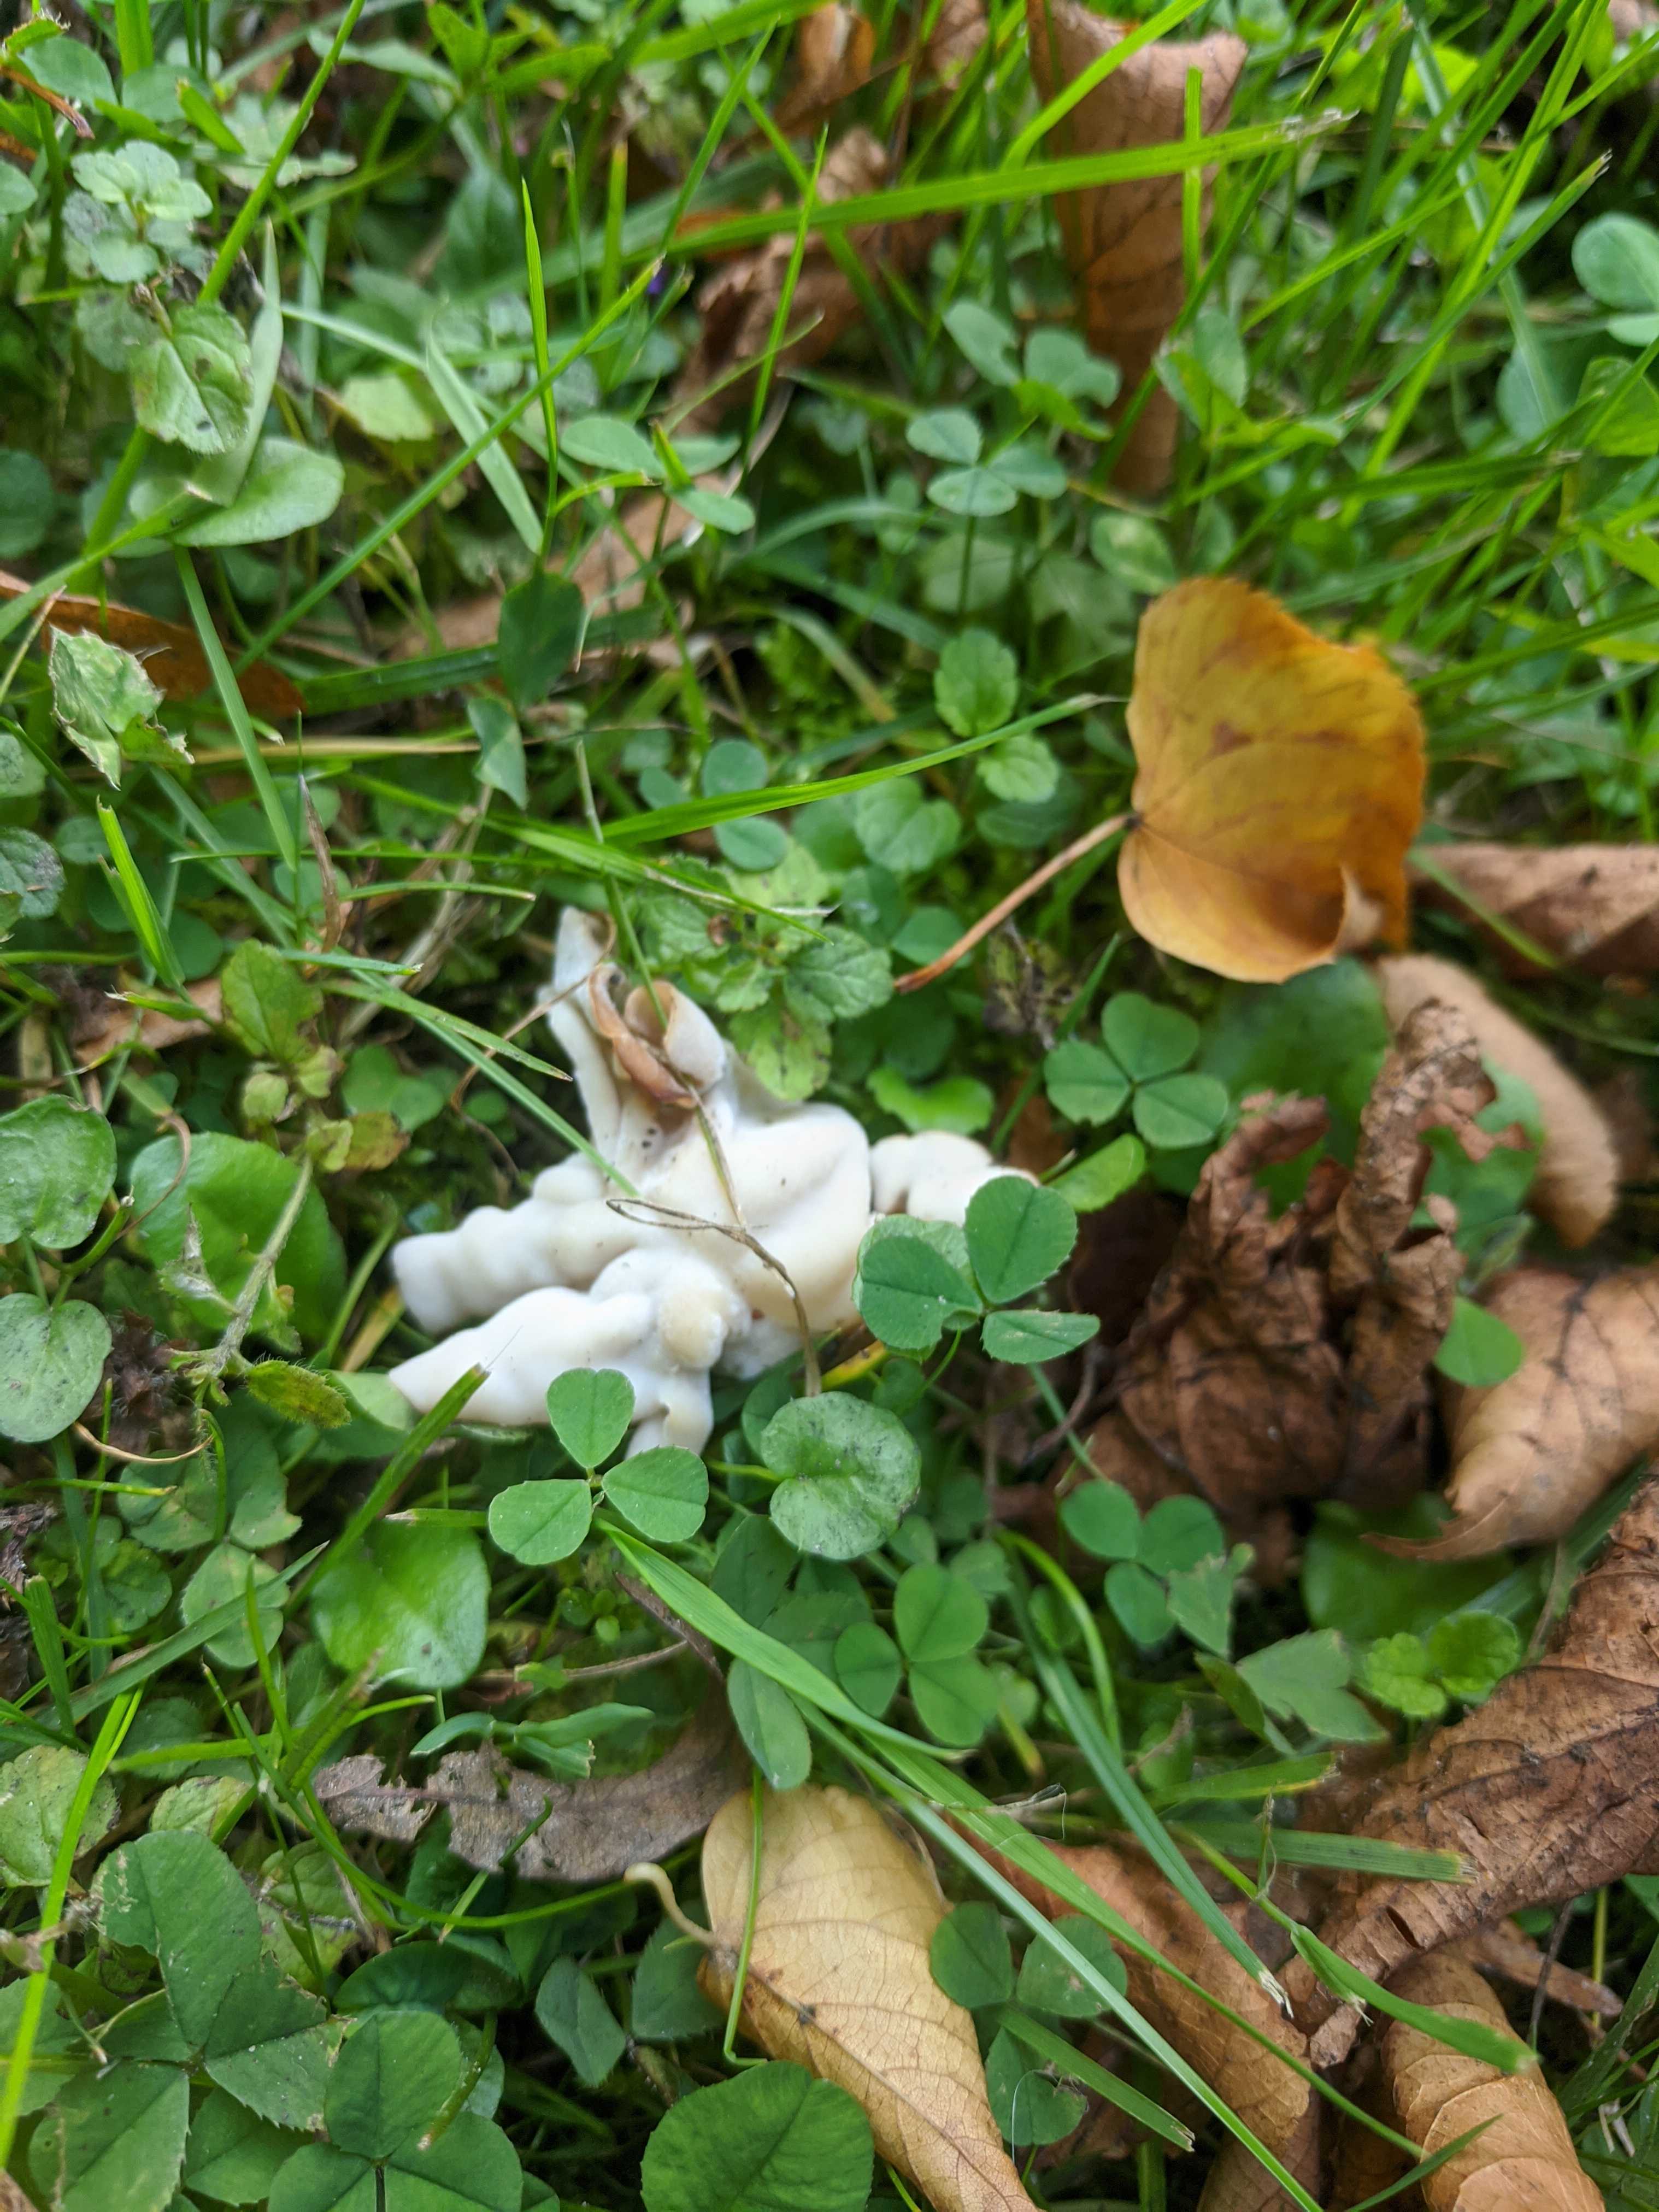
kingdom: Fungi
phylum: Ascomycota
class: Pezizomycetes
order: Pezizales
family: Helvellaceae
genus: Helvella
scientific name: Helvella crispa
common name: kruset foldhat
